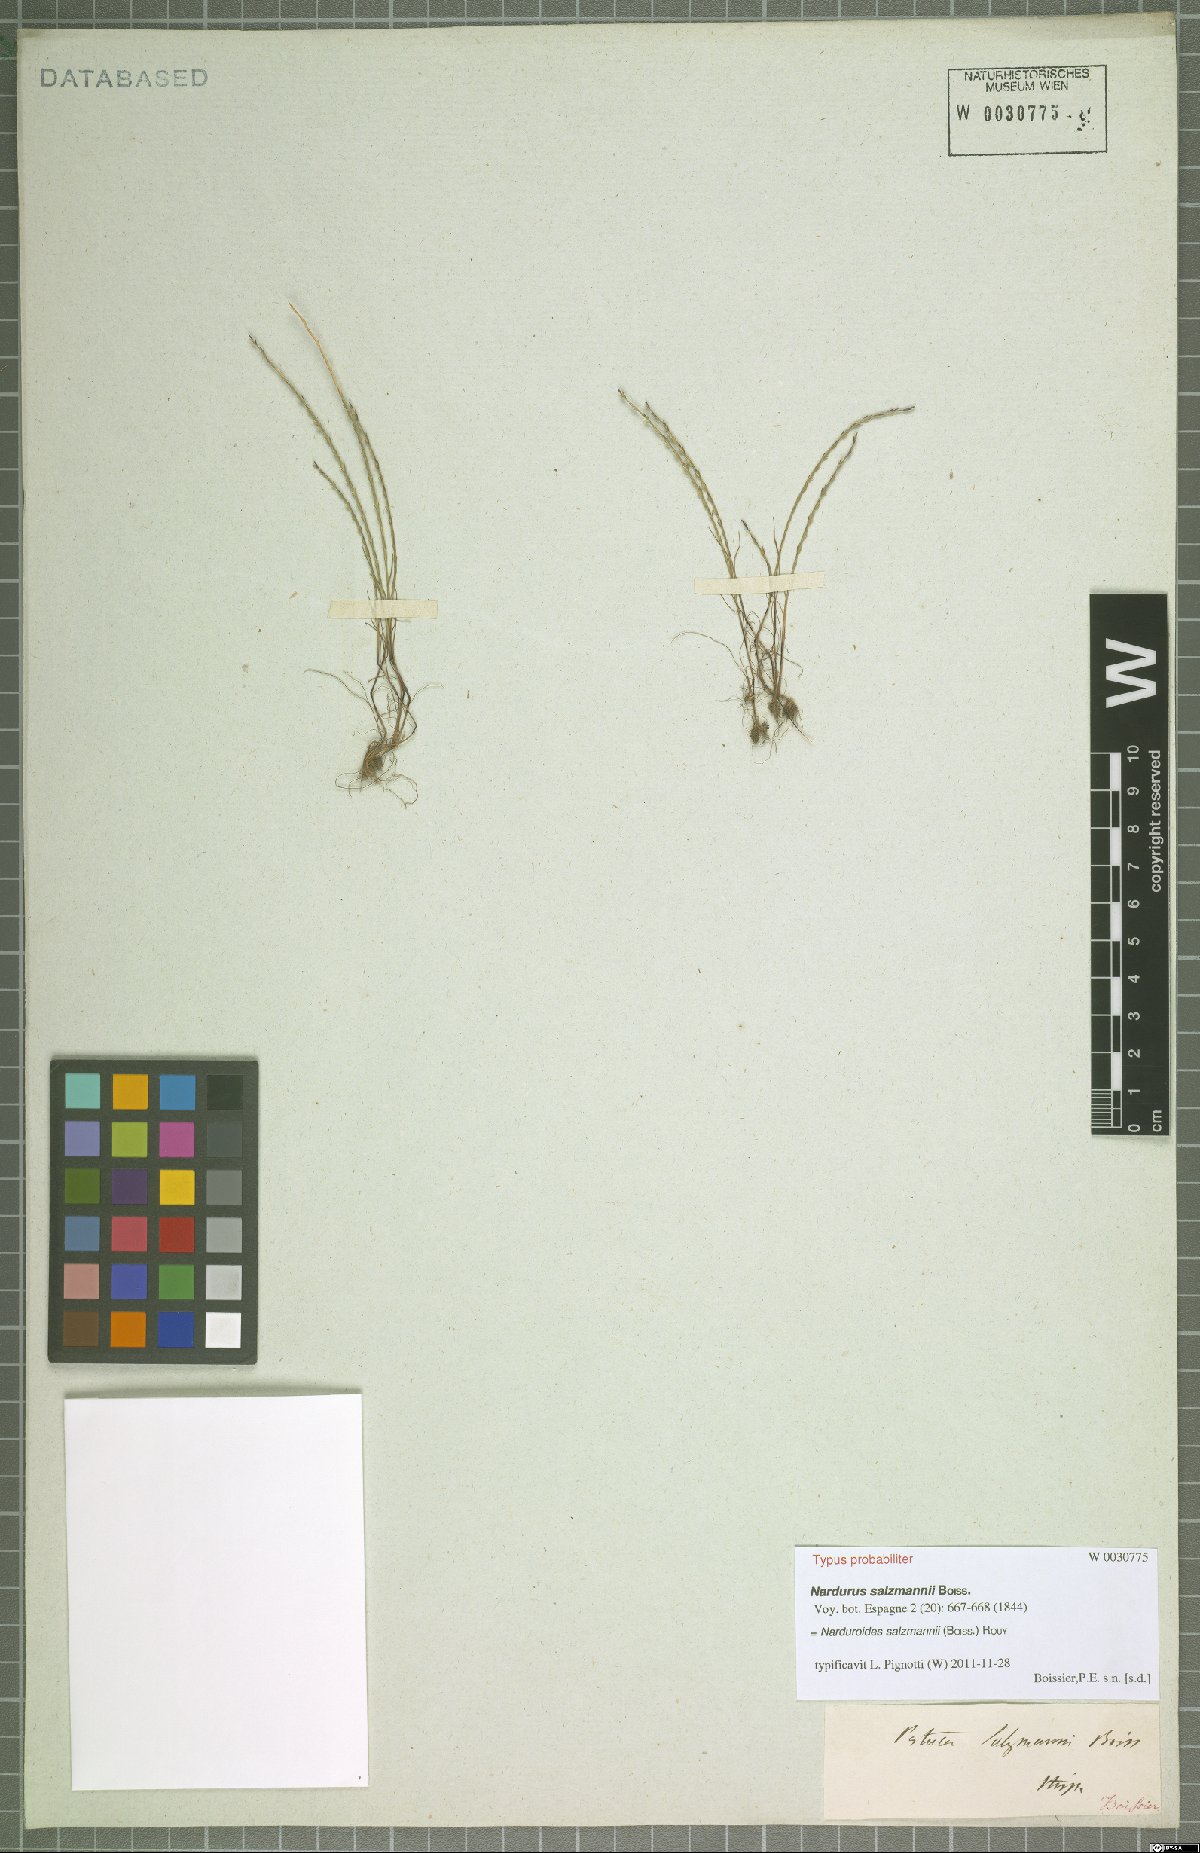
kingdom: Plantae
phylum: Tracheophyta
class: Liliopsida
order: Poales
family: Poaceae
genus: Festuca
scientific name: Festuca salzmannii
